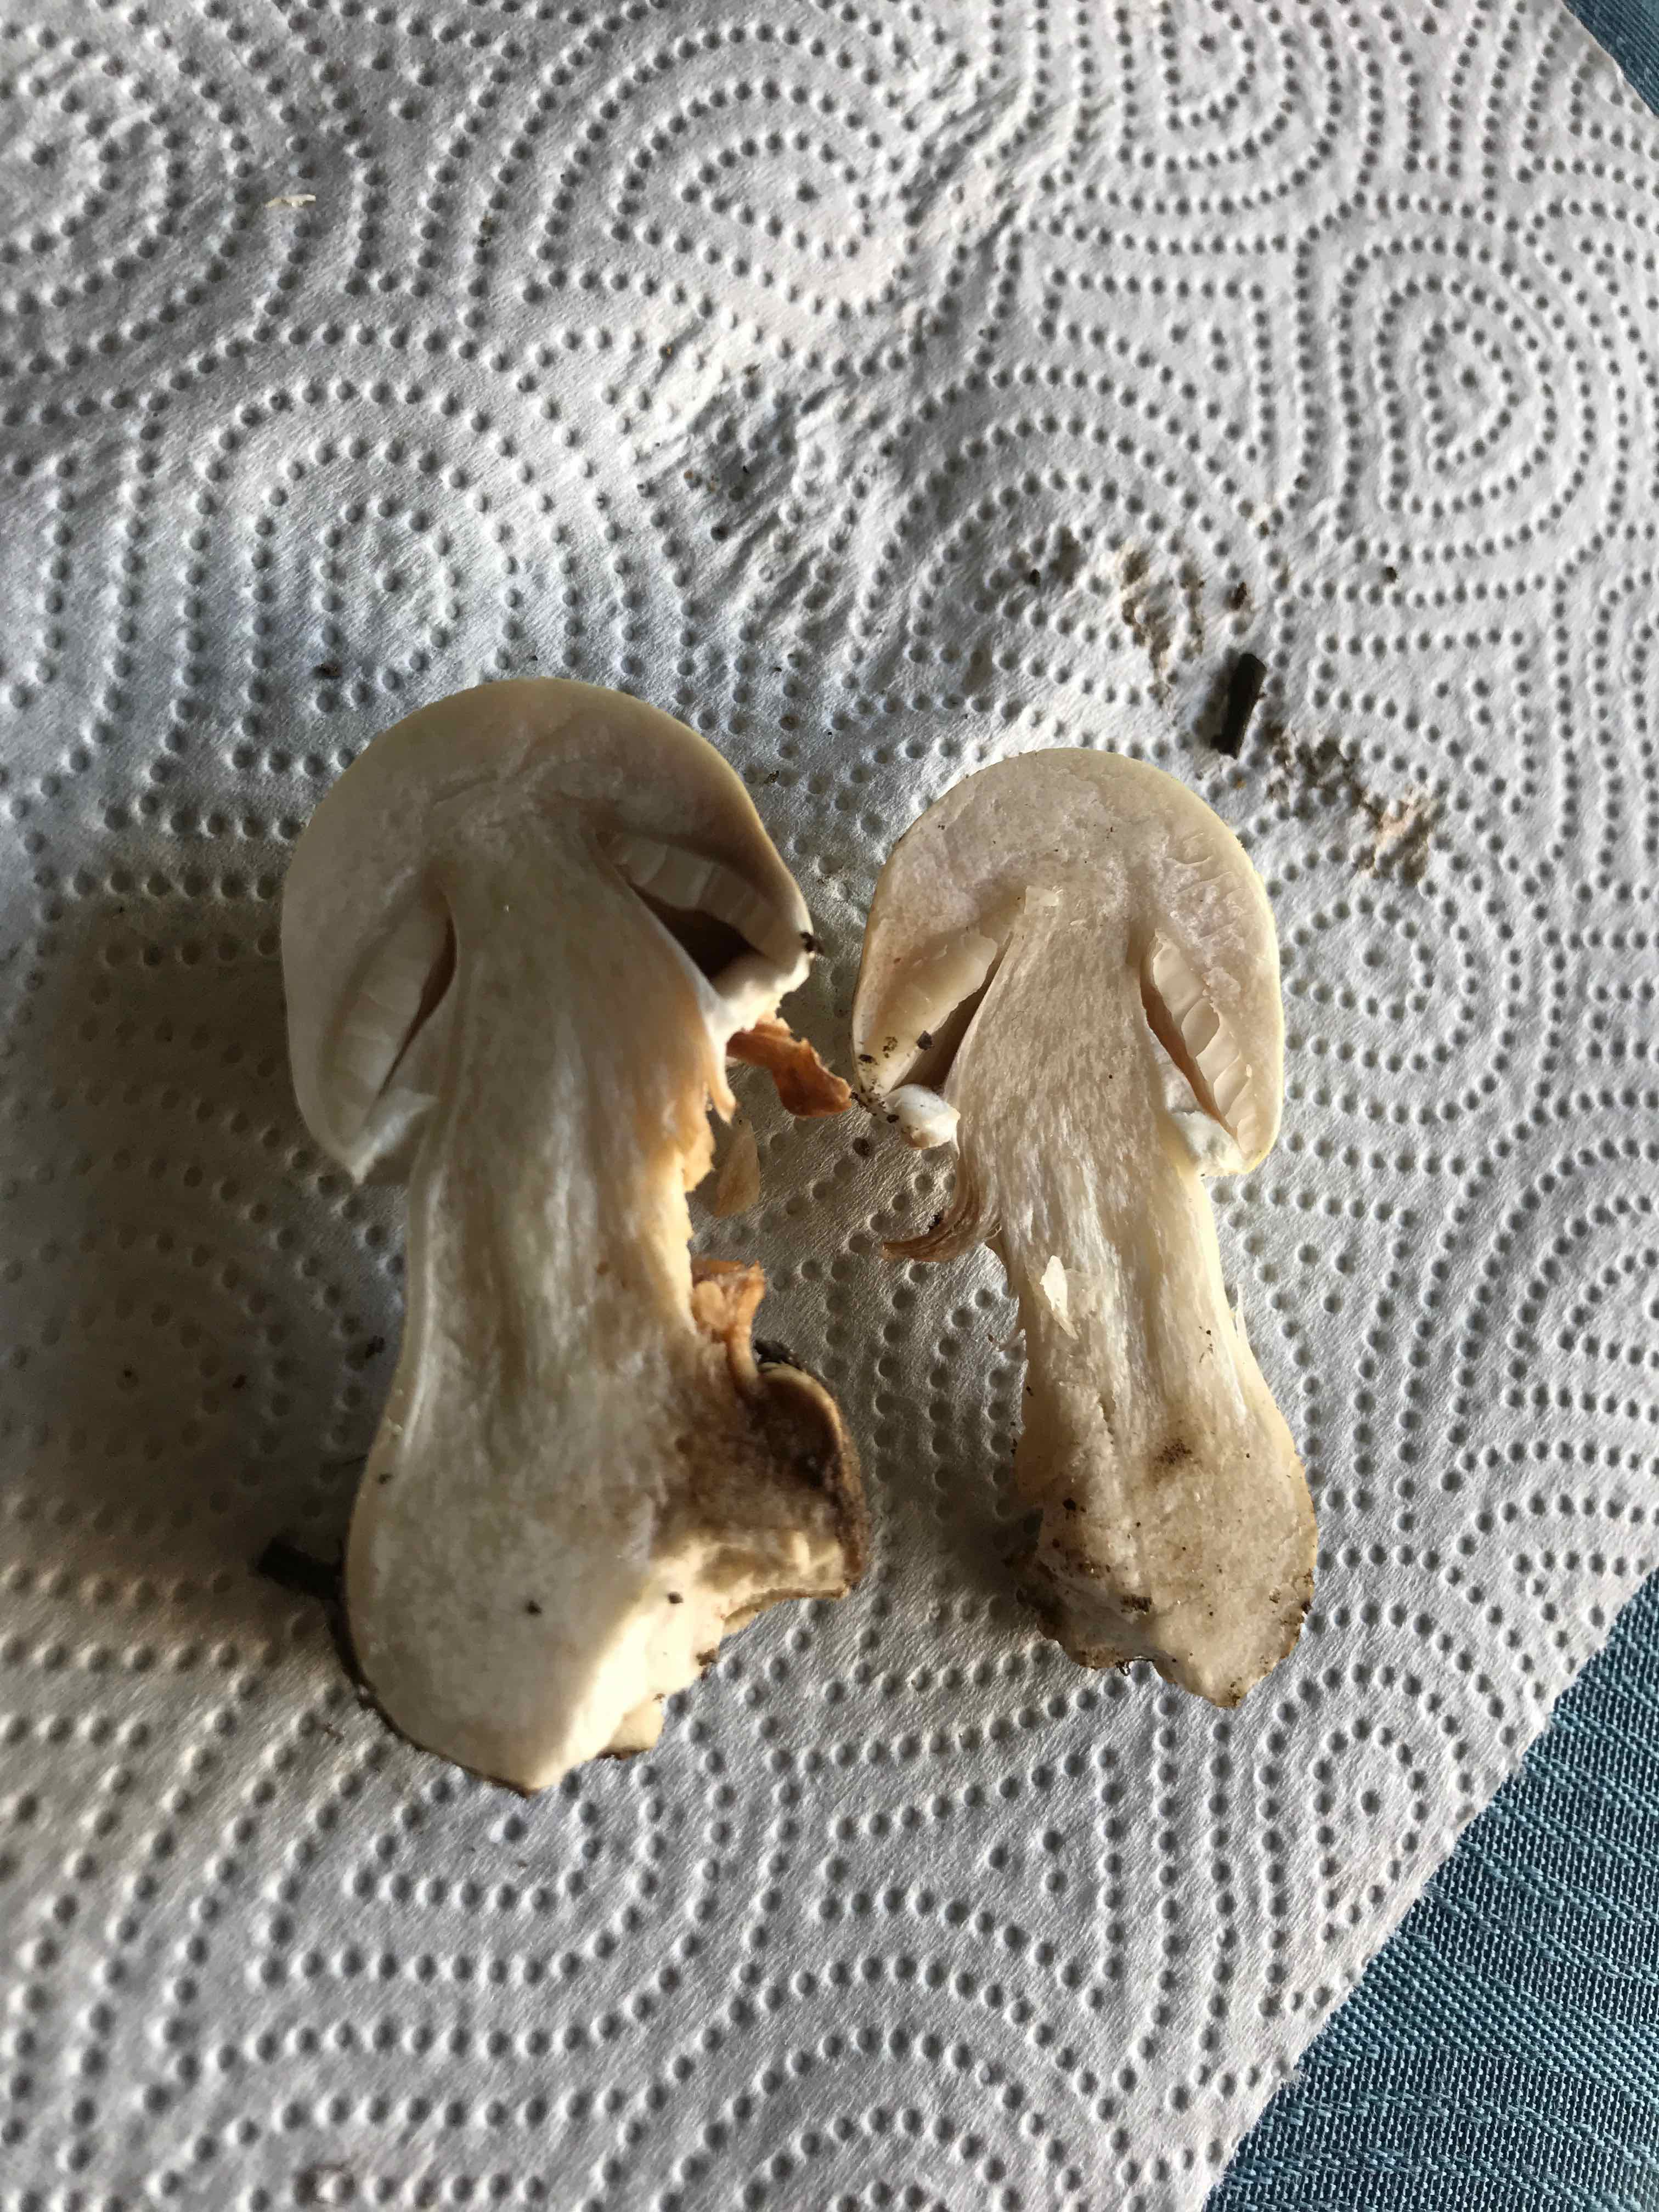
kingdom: Fungi
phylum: Basidiomycota
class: Agaricomycetes
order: Agaricales
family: Agaricaceae
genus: Agaricus
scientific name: Agaricus
